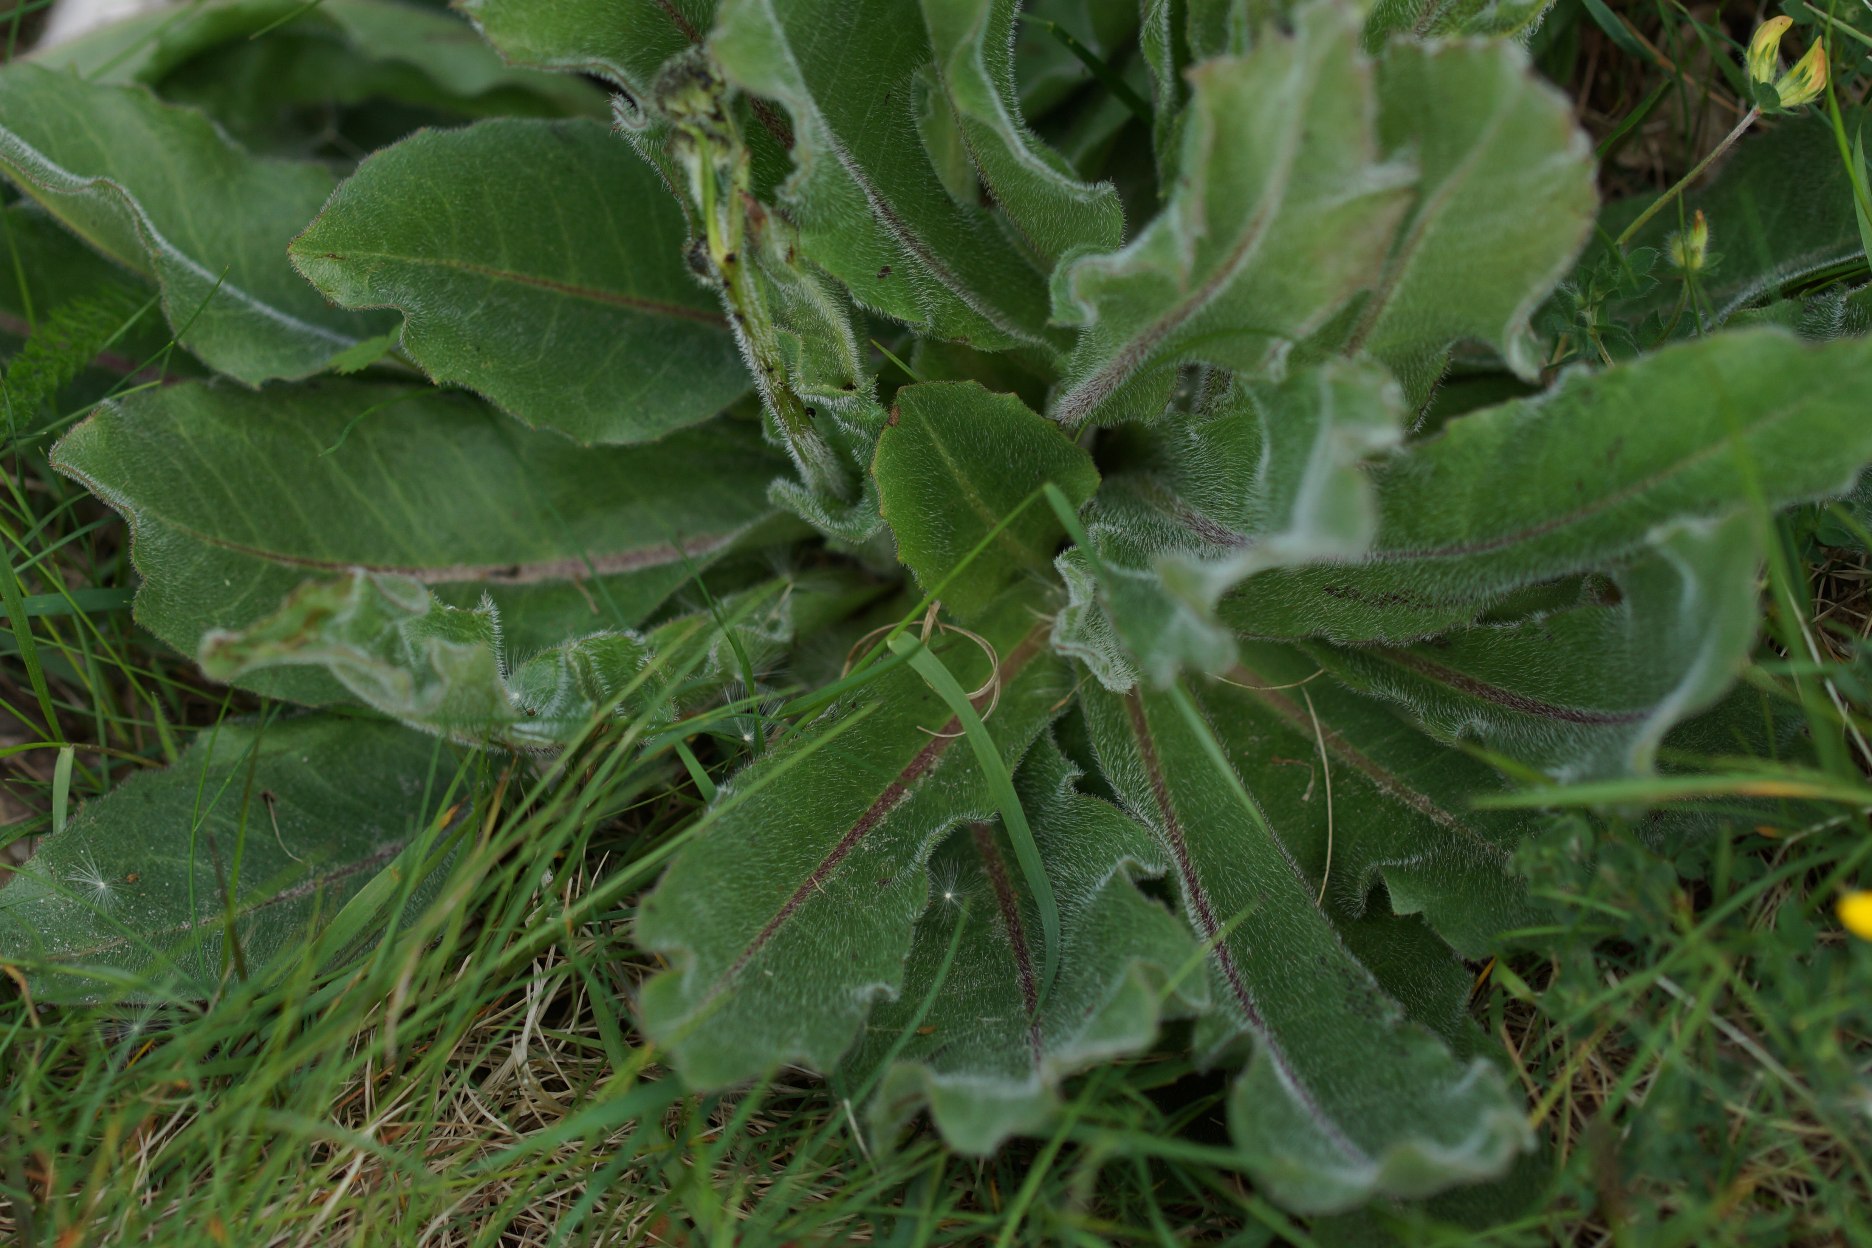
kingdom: Plantae
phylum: Tracheophyta
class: Magnoliopsida
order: Asterales
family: Asteraceae
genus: Trommsdorffia
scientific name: Trommsdorffia maculata
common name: Plettet kongepen
